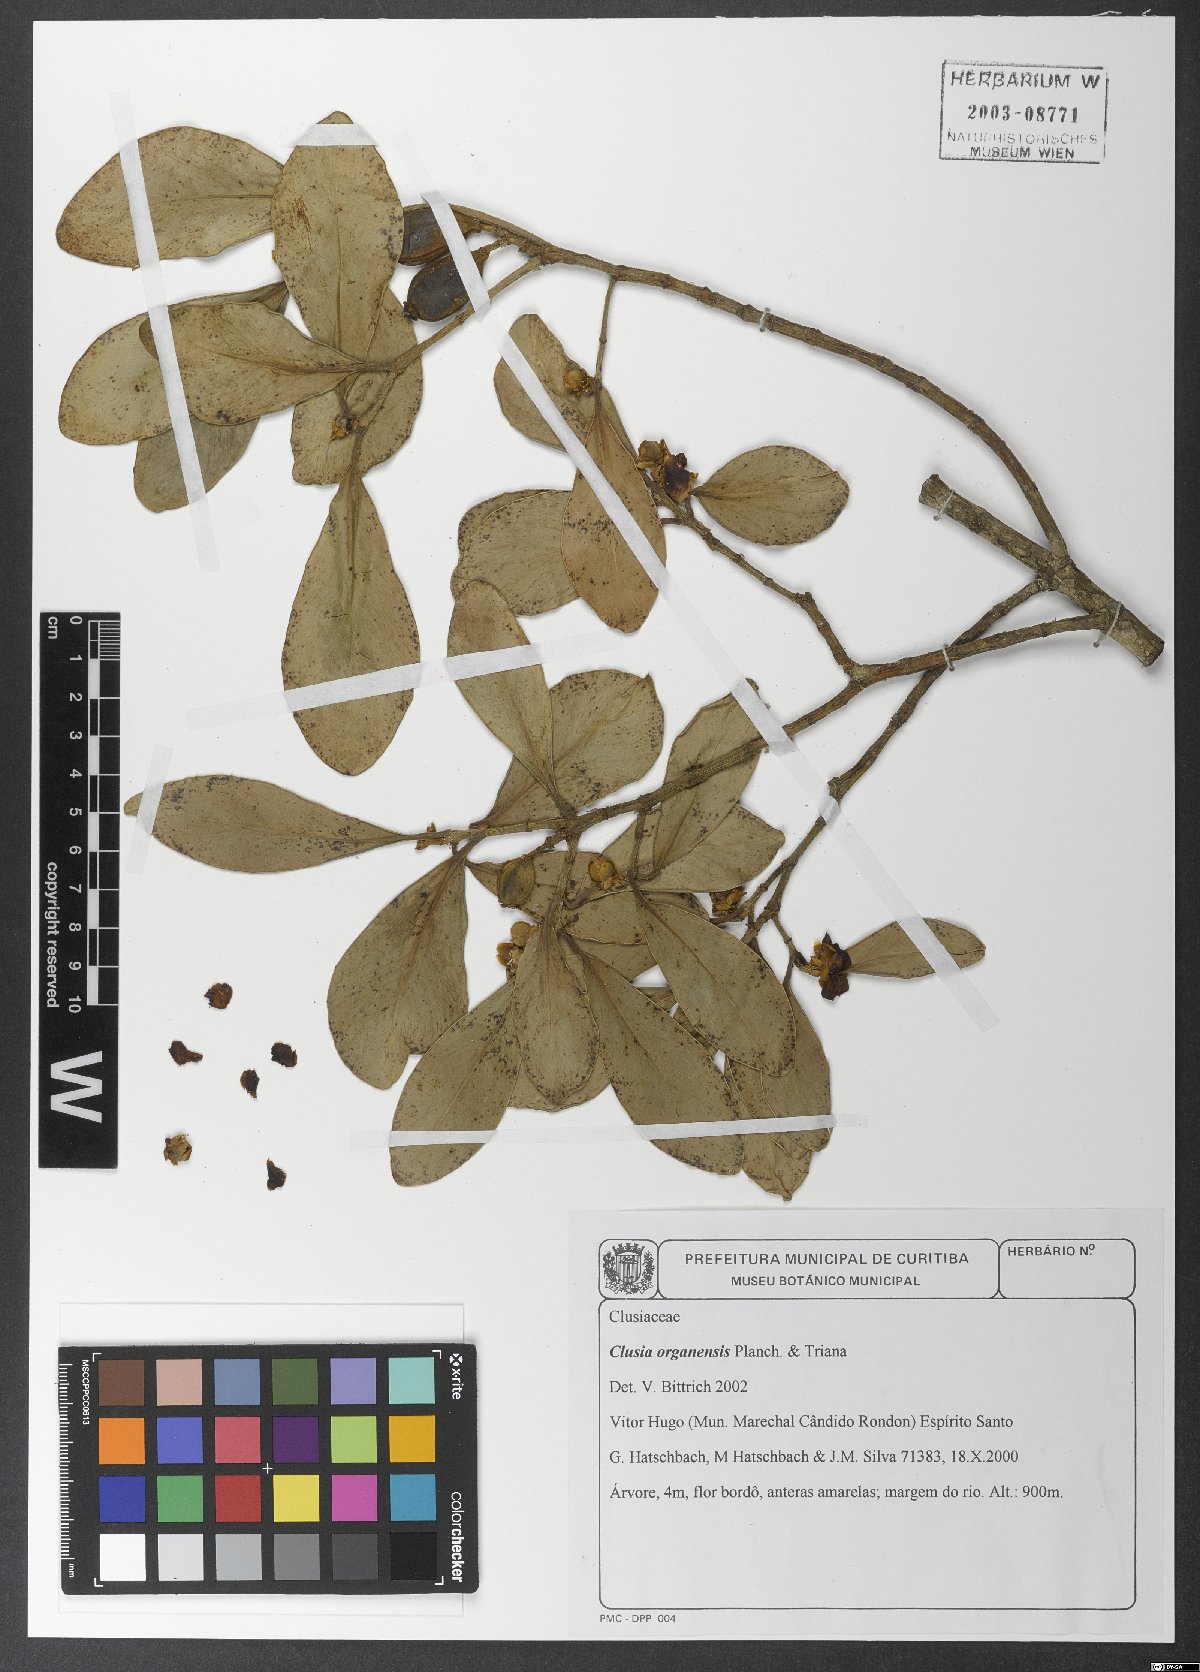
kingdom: Plantae
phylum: Tracheophyta
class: Magnoliopsida
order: Malpighiales
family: Clusiaceae
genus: Clusia
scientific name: Clusia organensis
